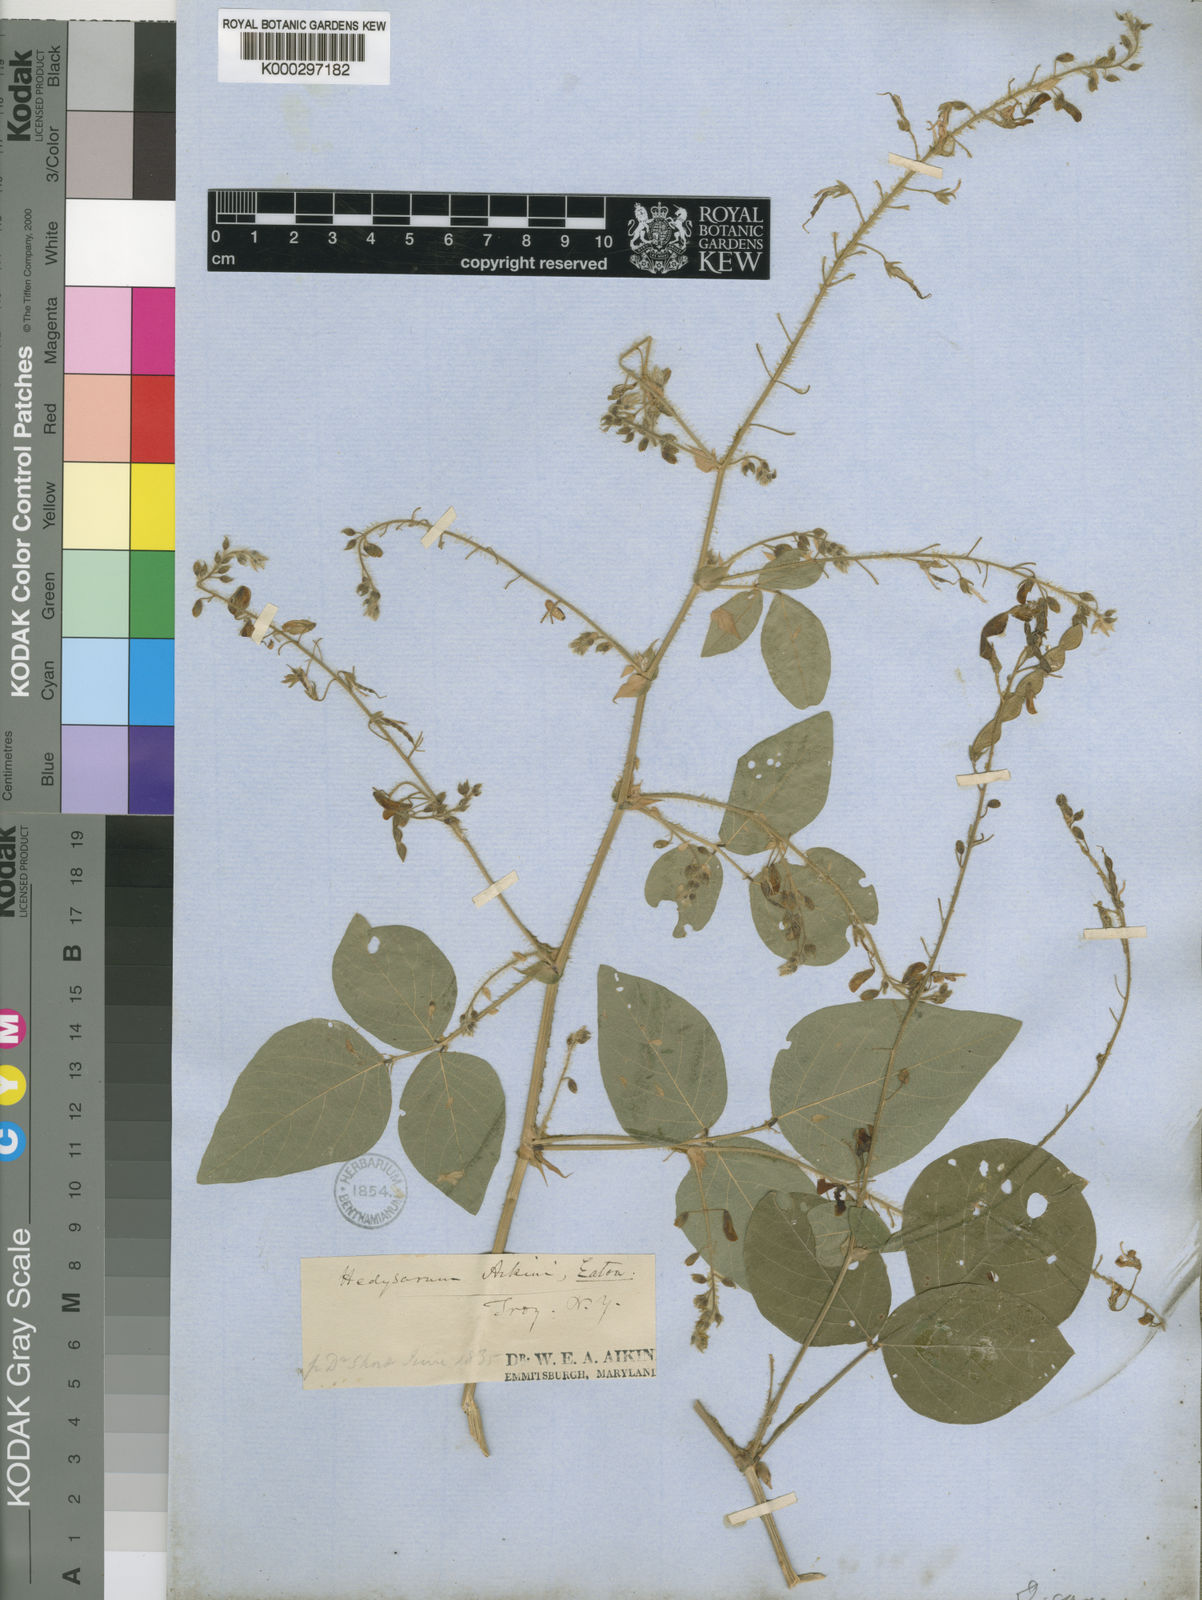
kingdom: Plantae
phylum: Tracheophyta
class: Magnoliopsida
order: Fabales
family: Fabaceae
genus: Desmodium
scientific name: Desmodium canescens
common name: Hoary tick-clover
